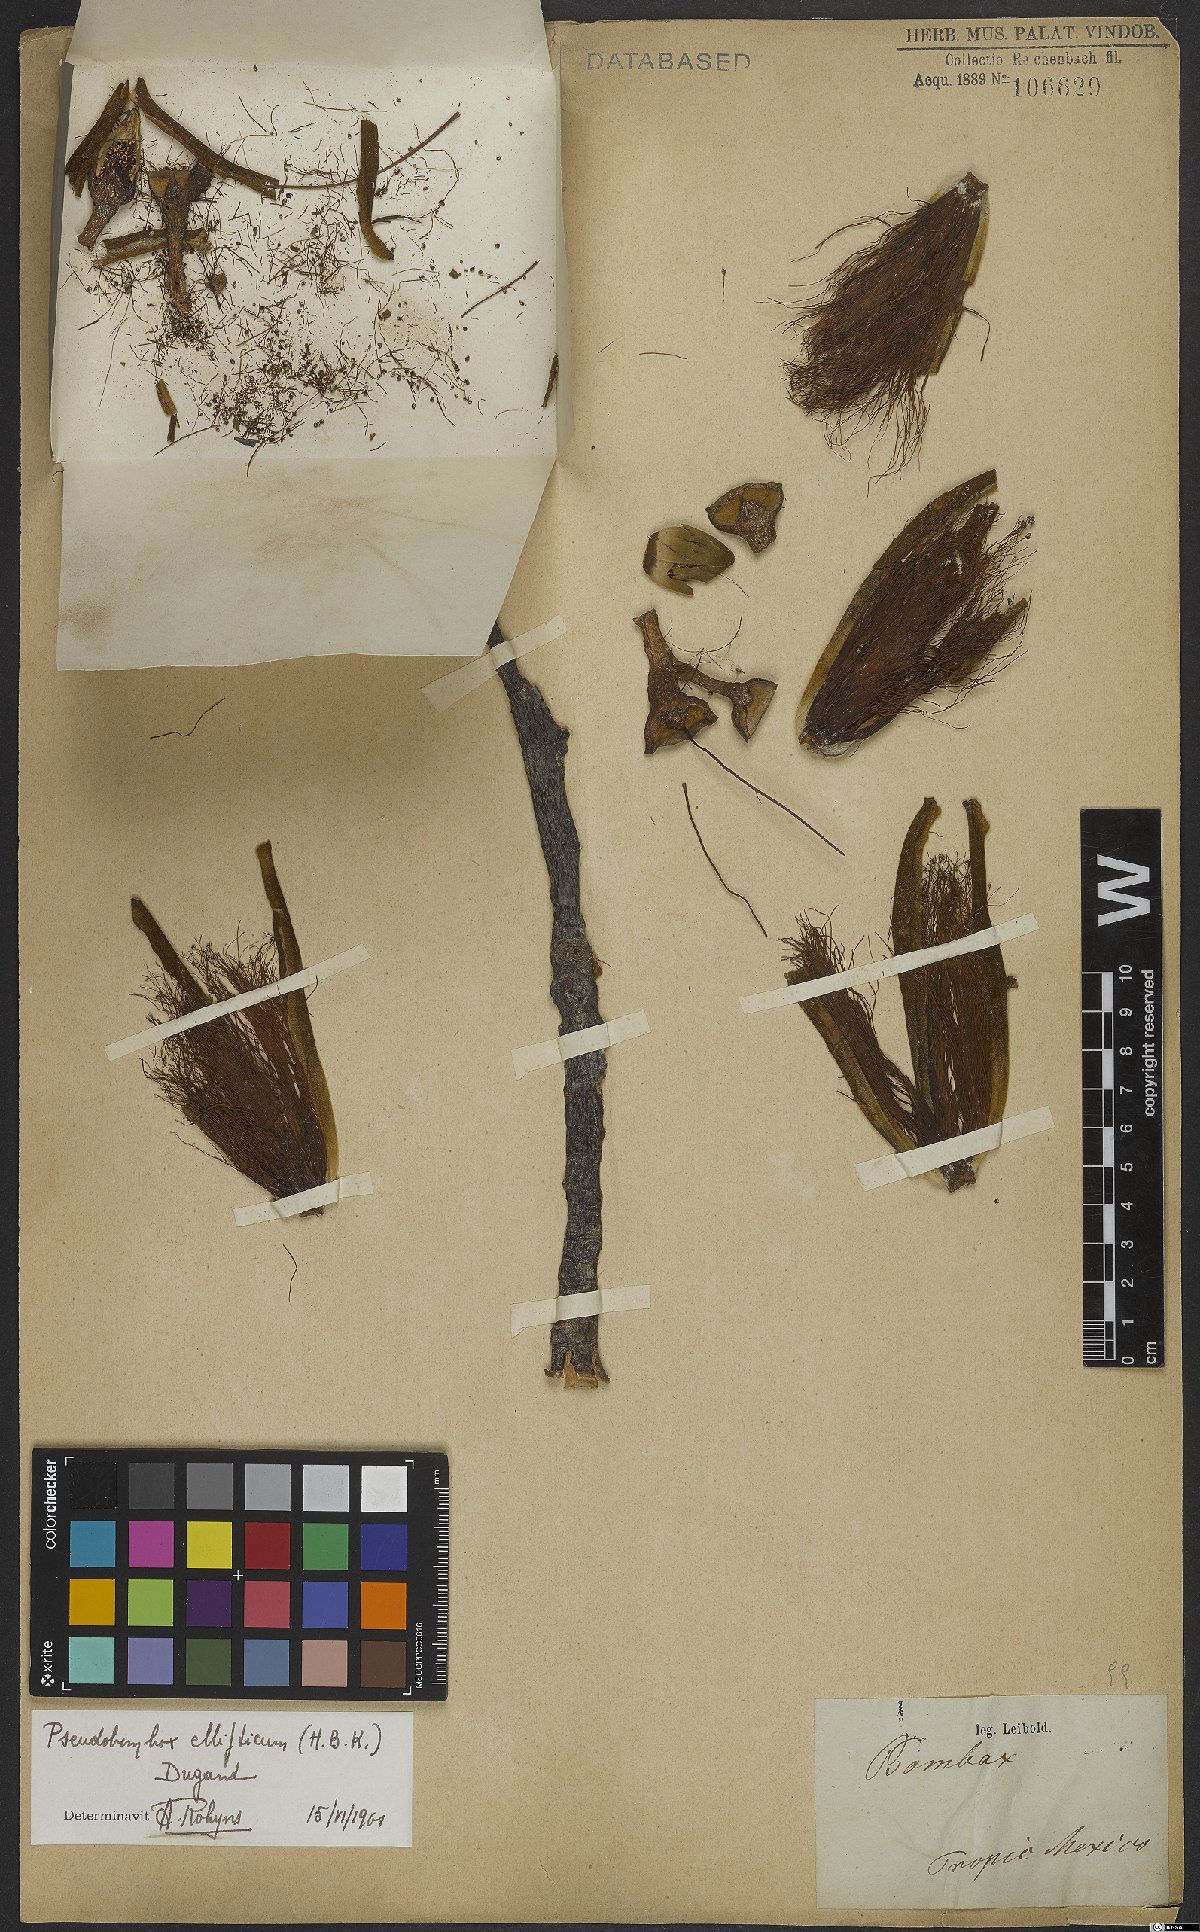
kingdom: Plantae
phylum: Tracheophyta
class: Magnoliopsida
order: Malvales
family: Malvaceae
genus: Pseudobombax
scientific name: Pseudobombax ellipticum
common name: Shaving-brush-tree
